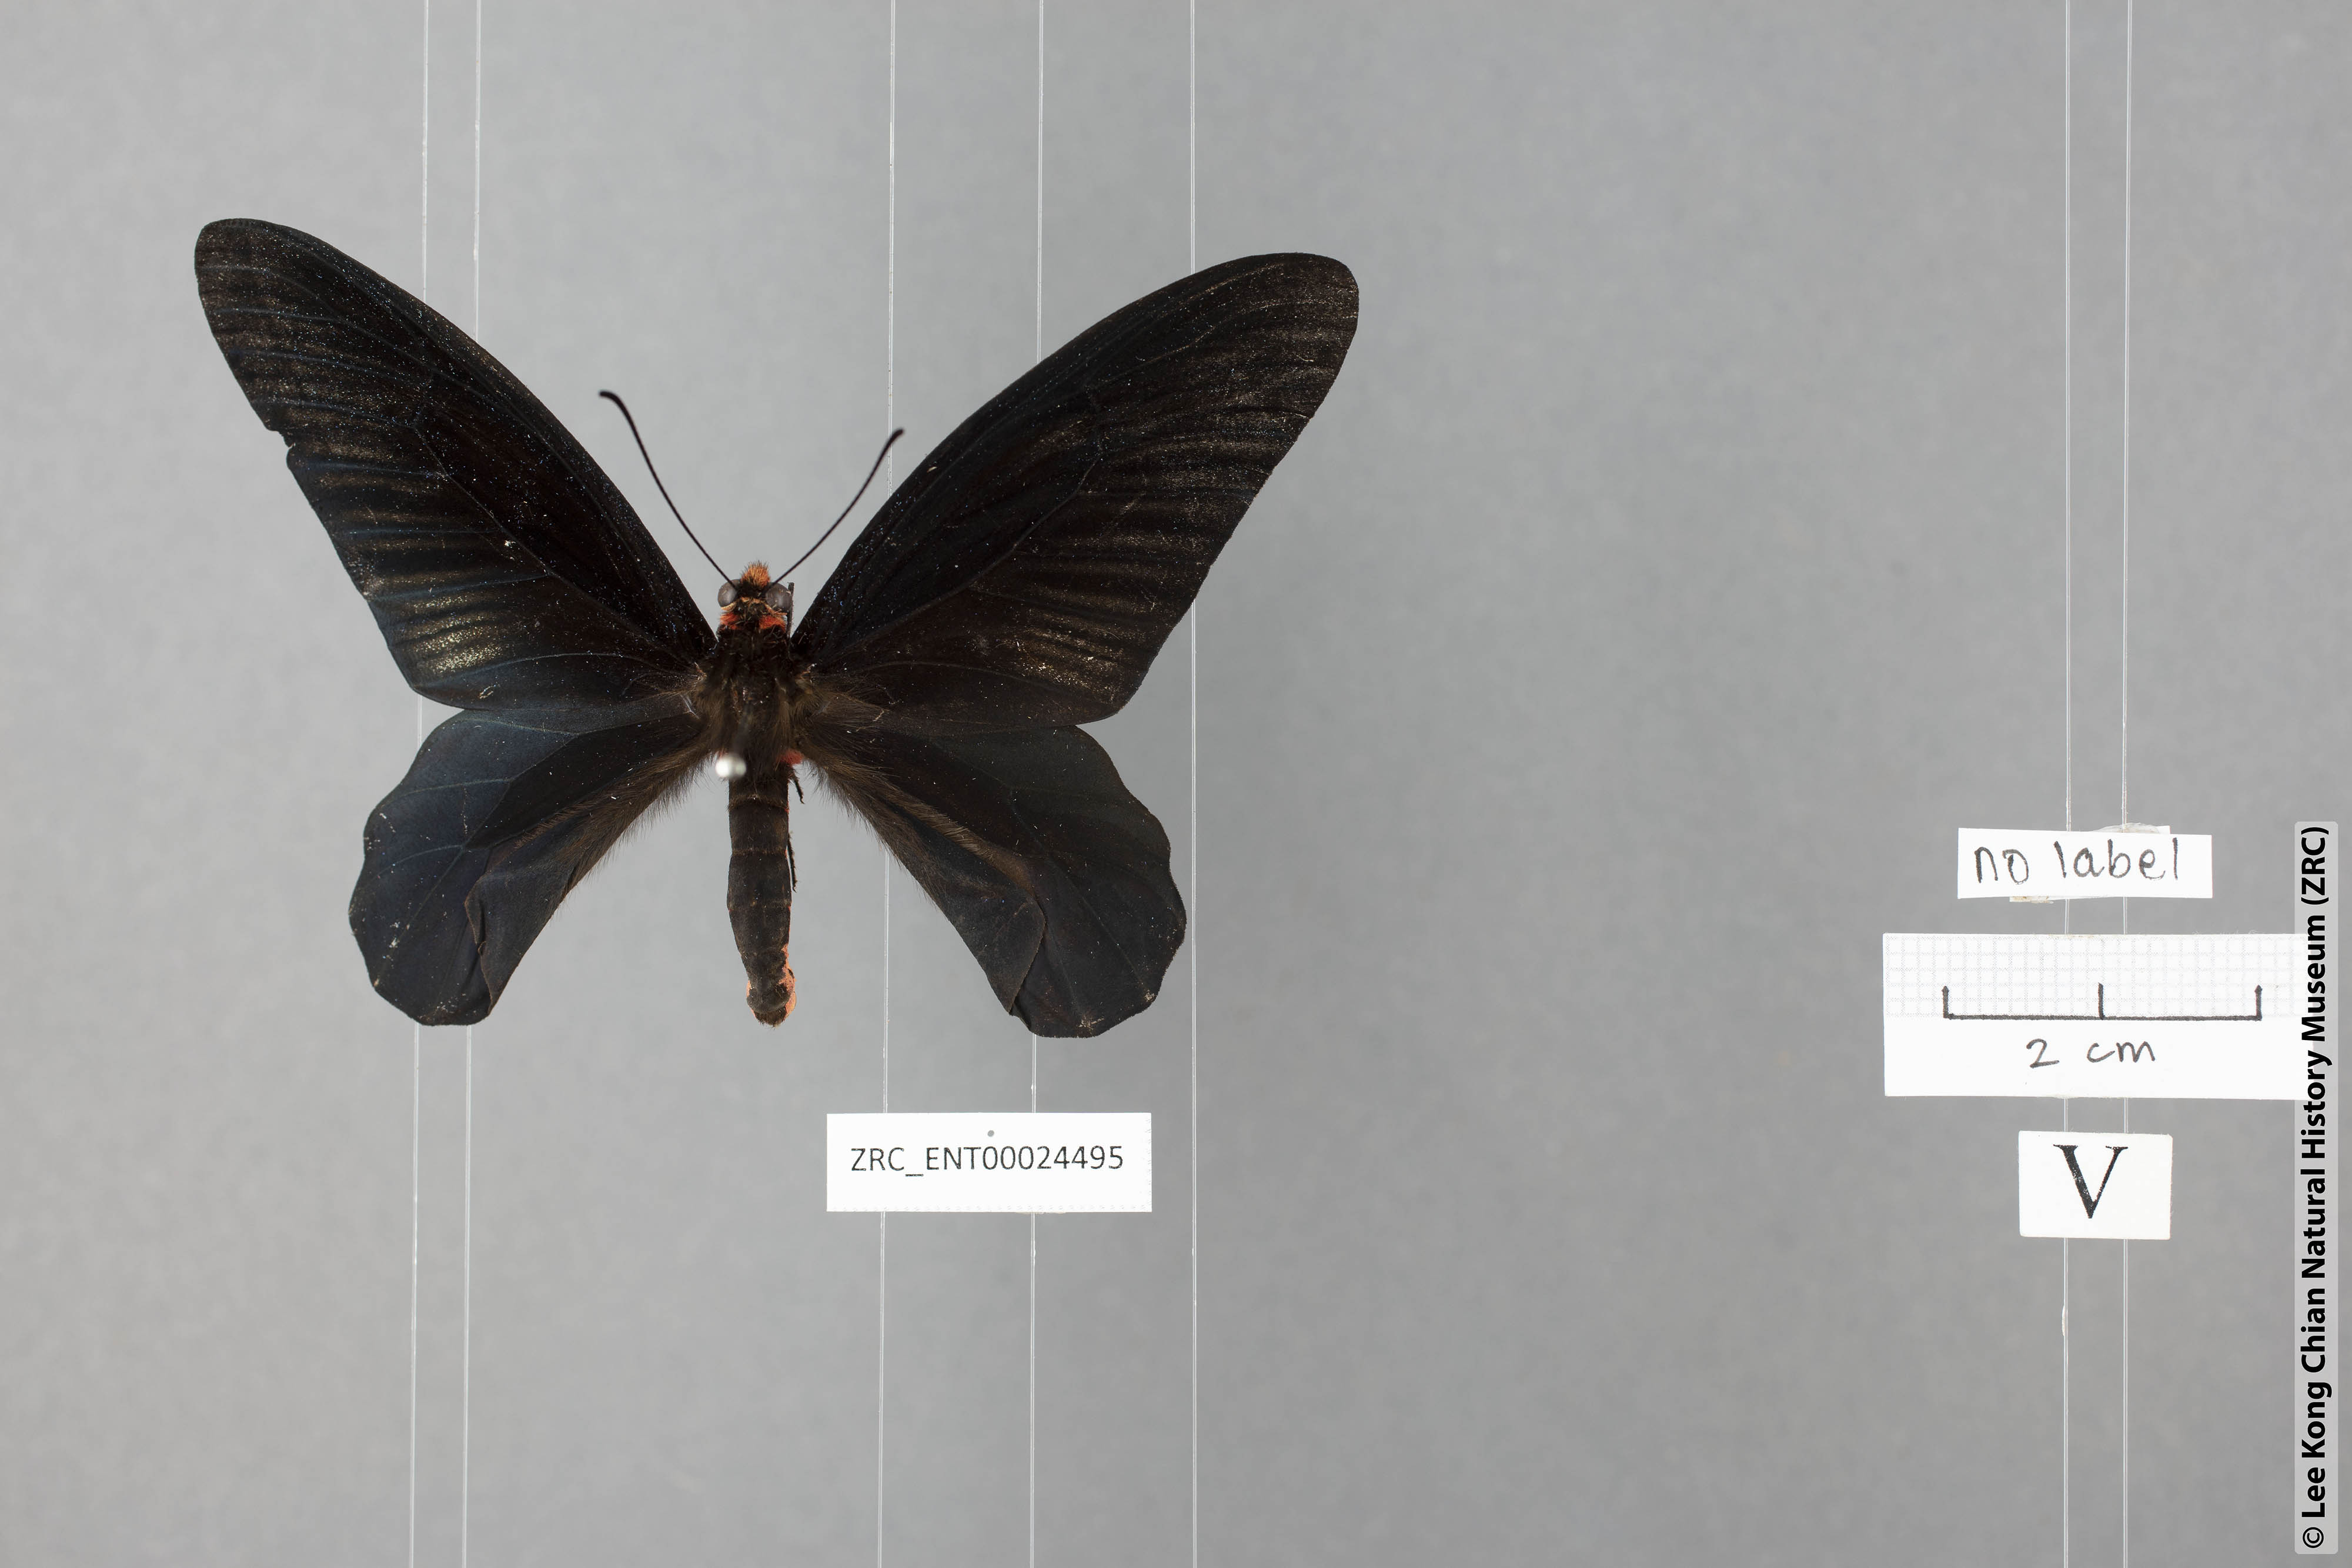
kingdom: Animalia
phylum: Arthropoda
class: Insecta
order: Lepidoptera
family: Papilionidae
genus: Atrophaneura
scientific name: Atrophaneura varuna
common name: Common batwing
